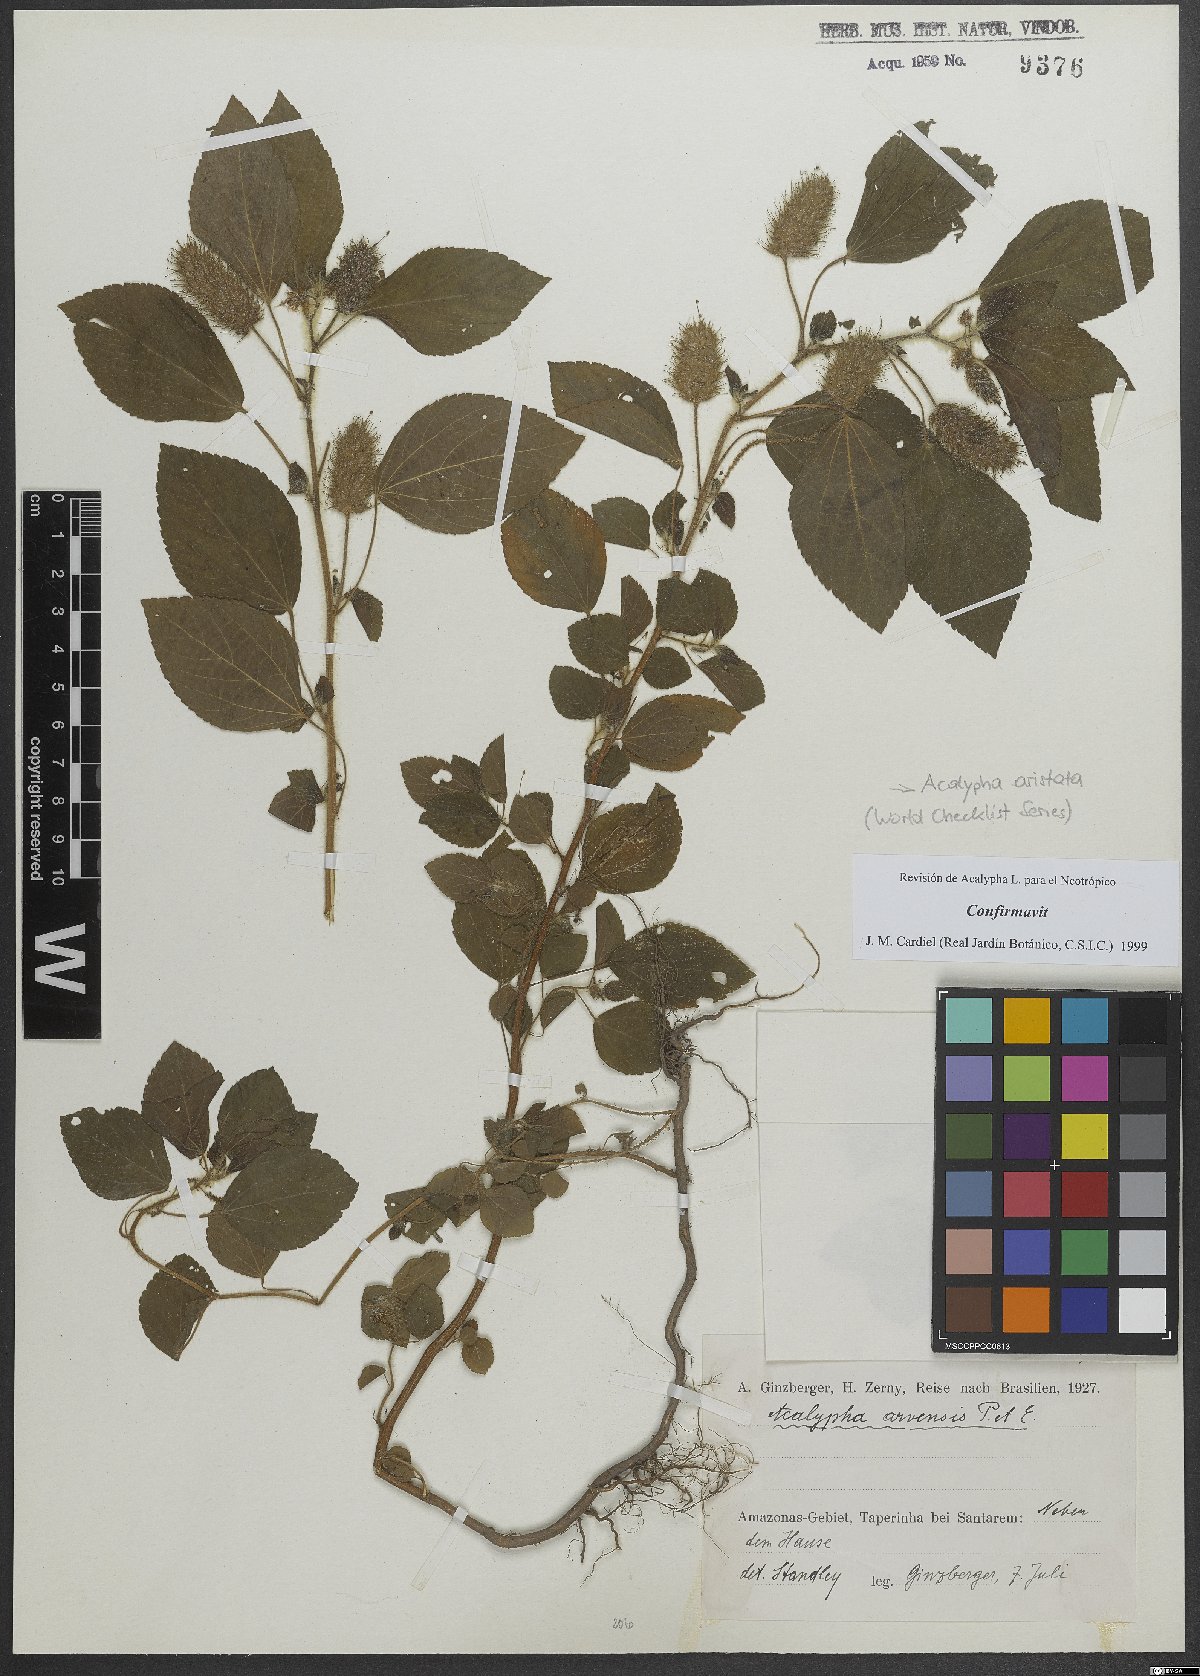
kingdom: Plantae
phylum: Tracheophyta
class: Magnoliopsida
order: Malpighiales
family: Euphorbiaceae
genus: Acalypha
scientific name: Acalypha alopecuroidea
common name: Foxtail copperleaf
